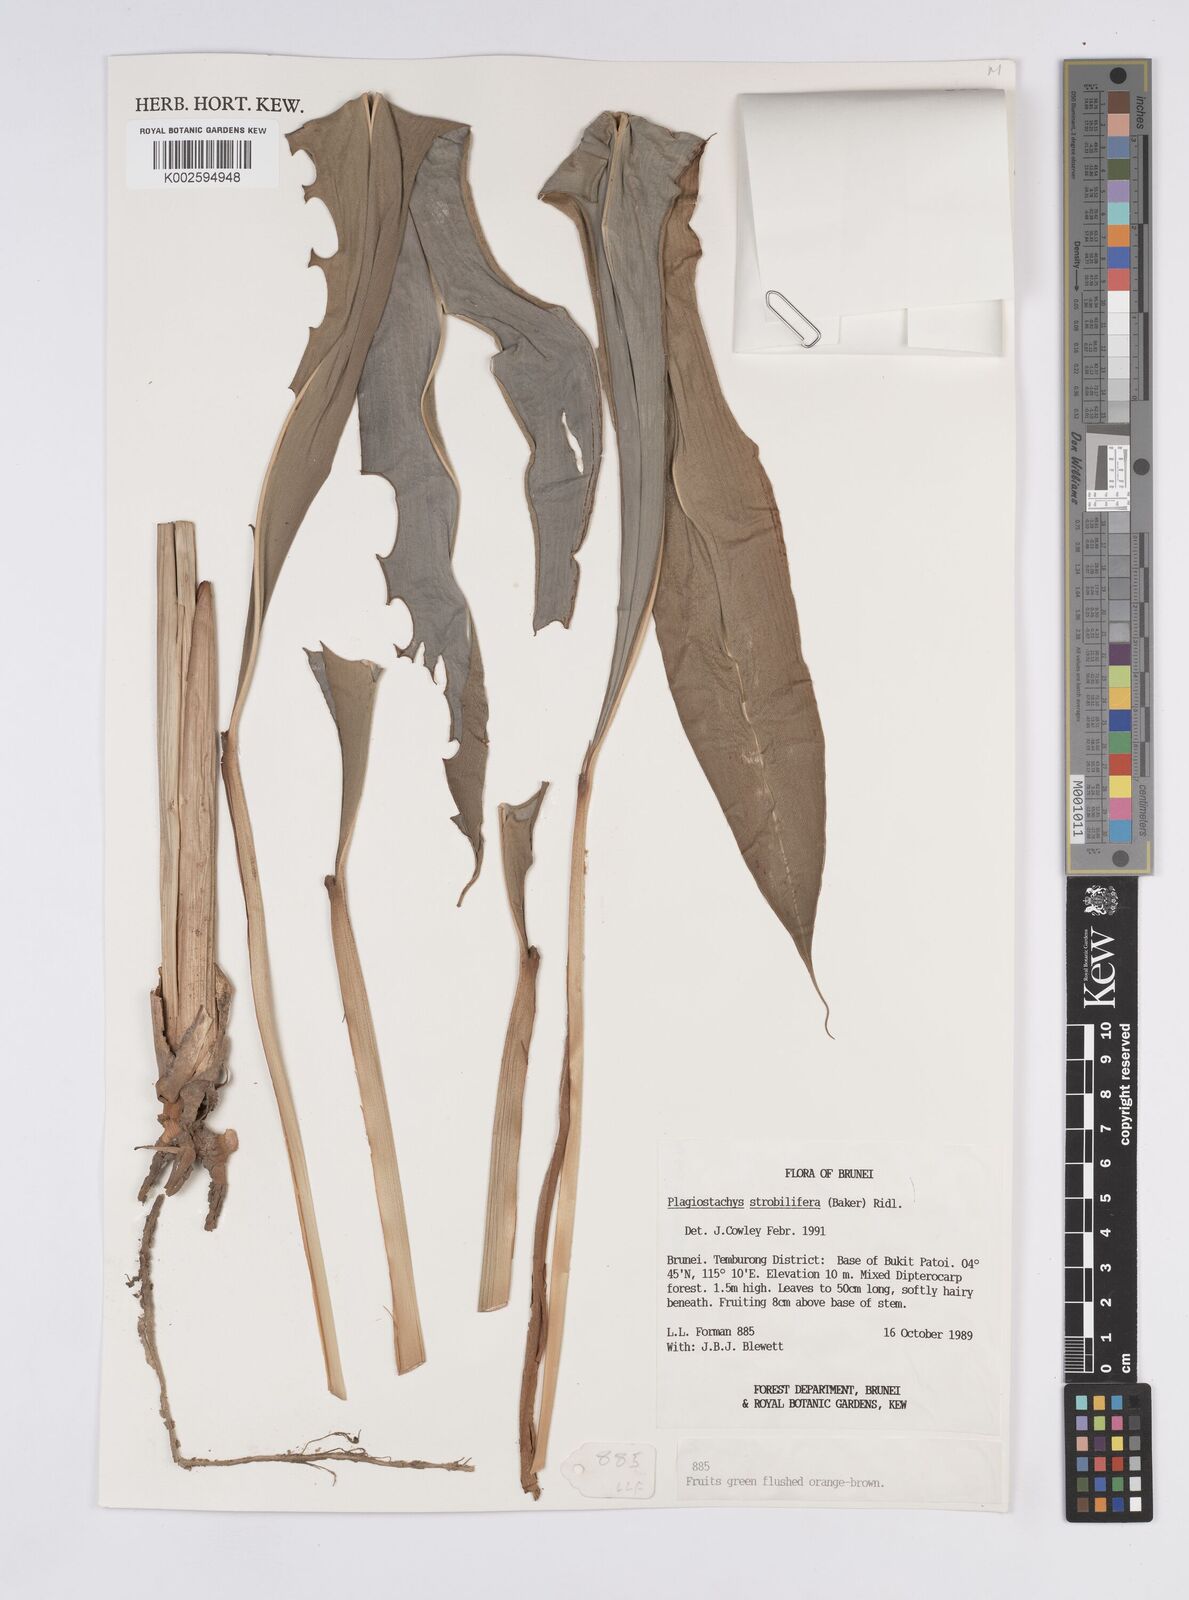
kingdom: Plantae
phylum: Tracheophyta
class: Liliopsida
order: Zingiberales
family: Zingiberaceae
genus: Plagiostachys
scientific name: Plagiostachys strobilifera
